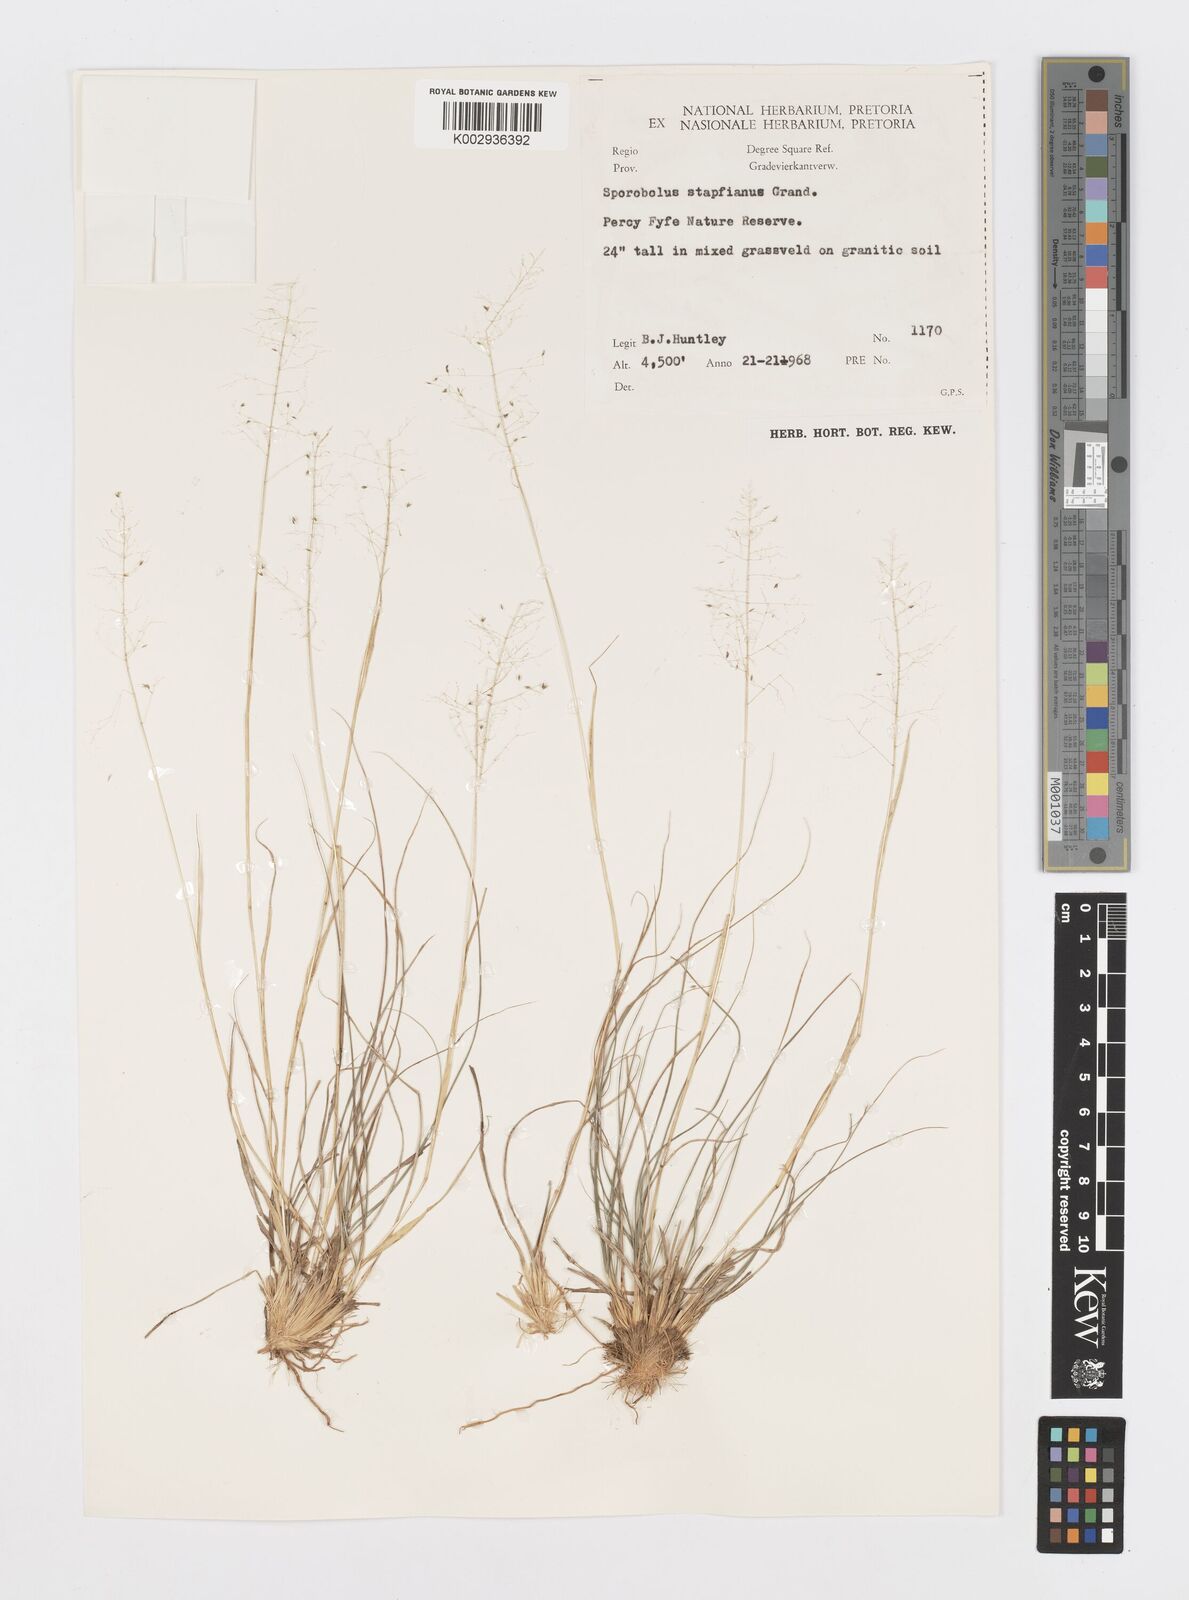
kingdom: Plantae
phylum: Tracheophyta
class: Liliopsida
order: Poales
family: Poaceae
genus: Sporobolus
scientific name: Sporobolus stapfianus
